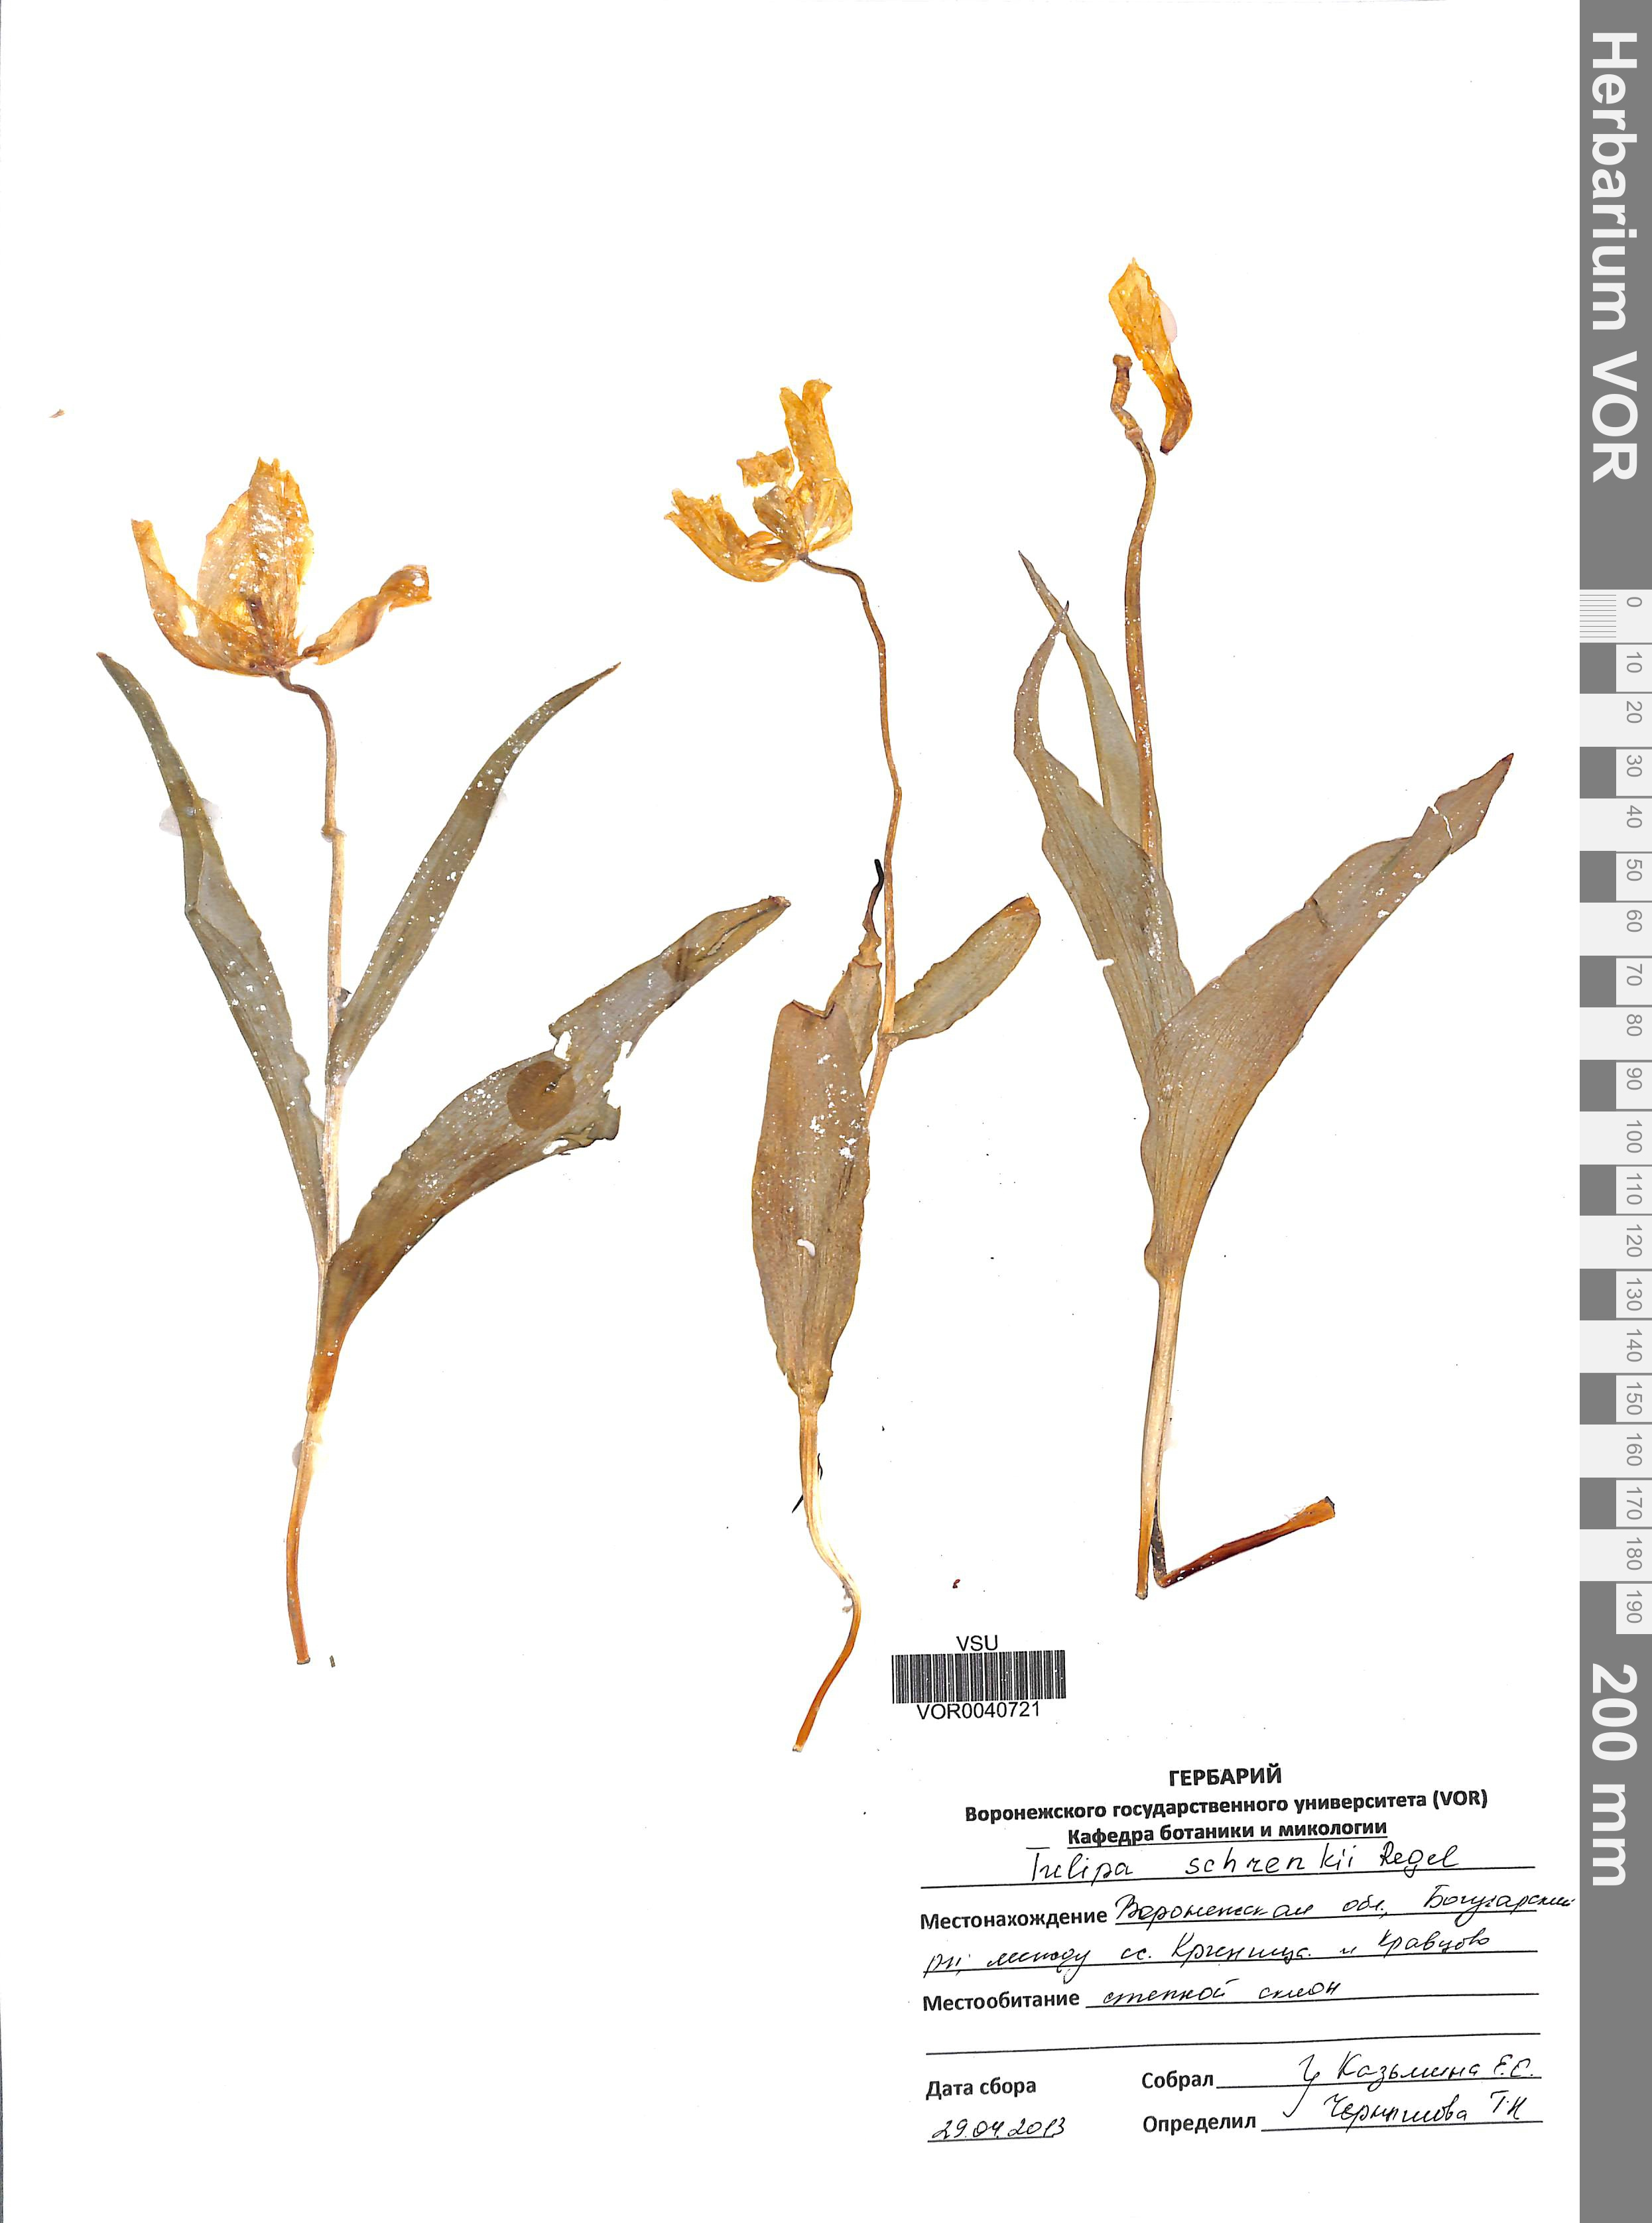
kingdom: Plantae
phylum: Tracheophyta
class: Liliopsida
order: Liliales
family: Liliaceae
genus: Tulipa
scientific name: Tulipa suaveolens
